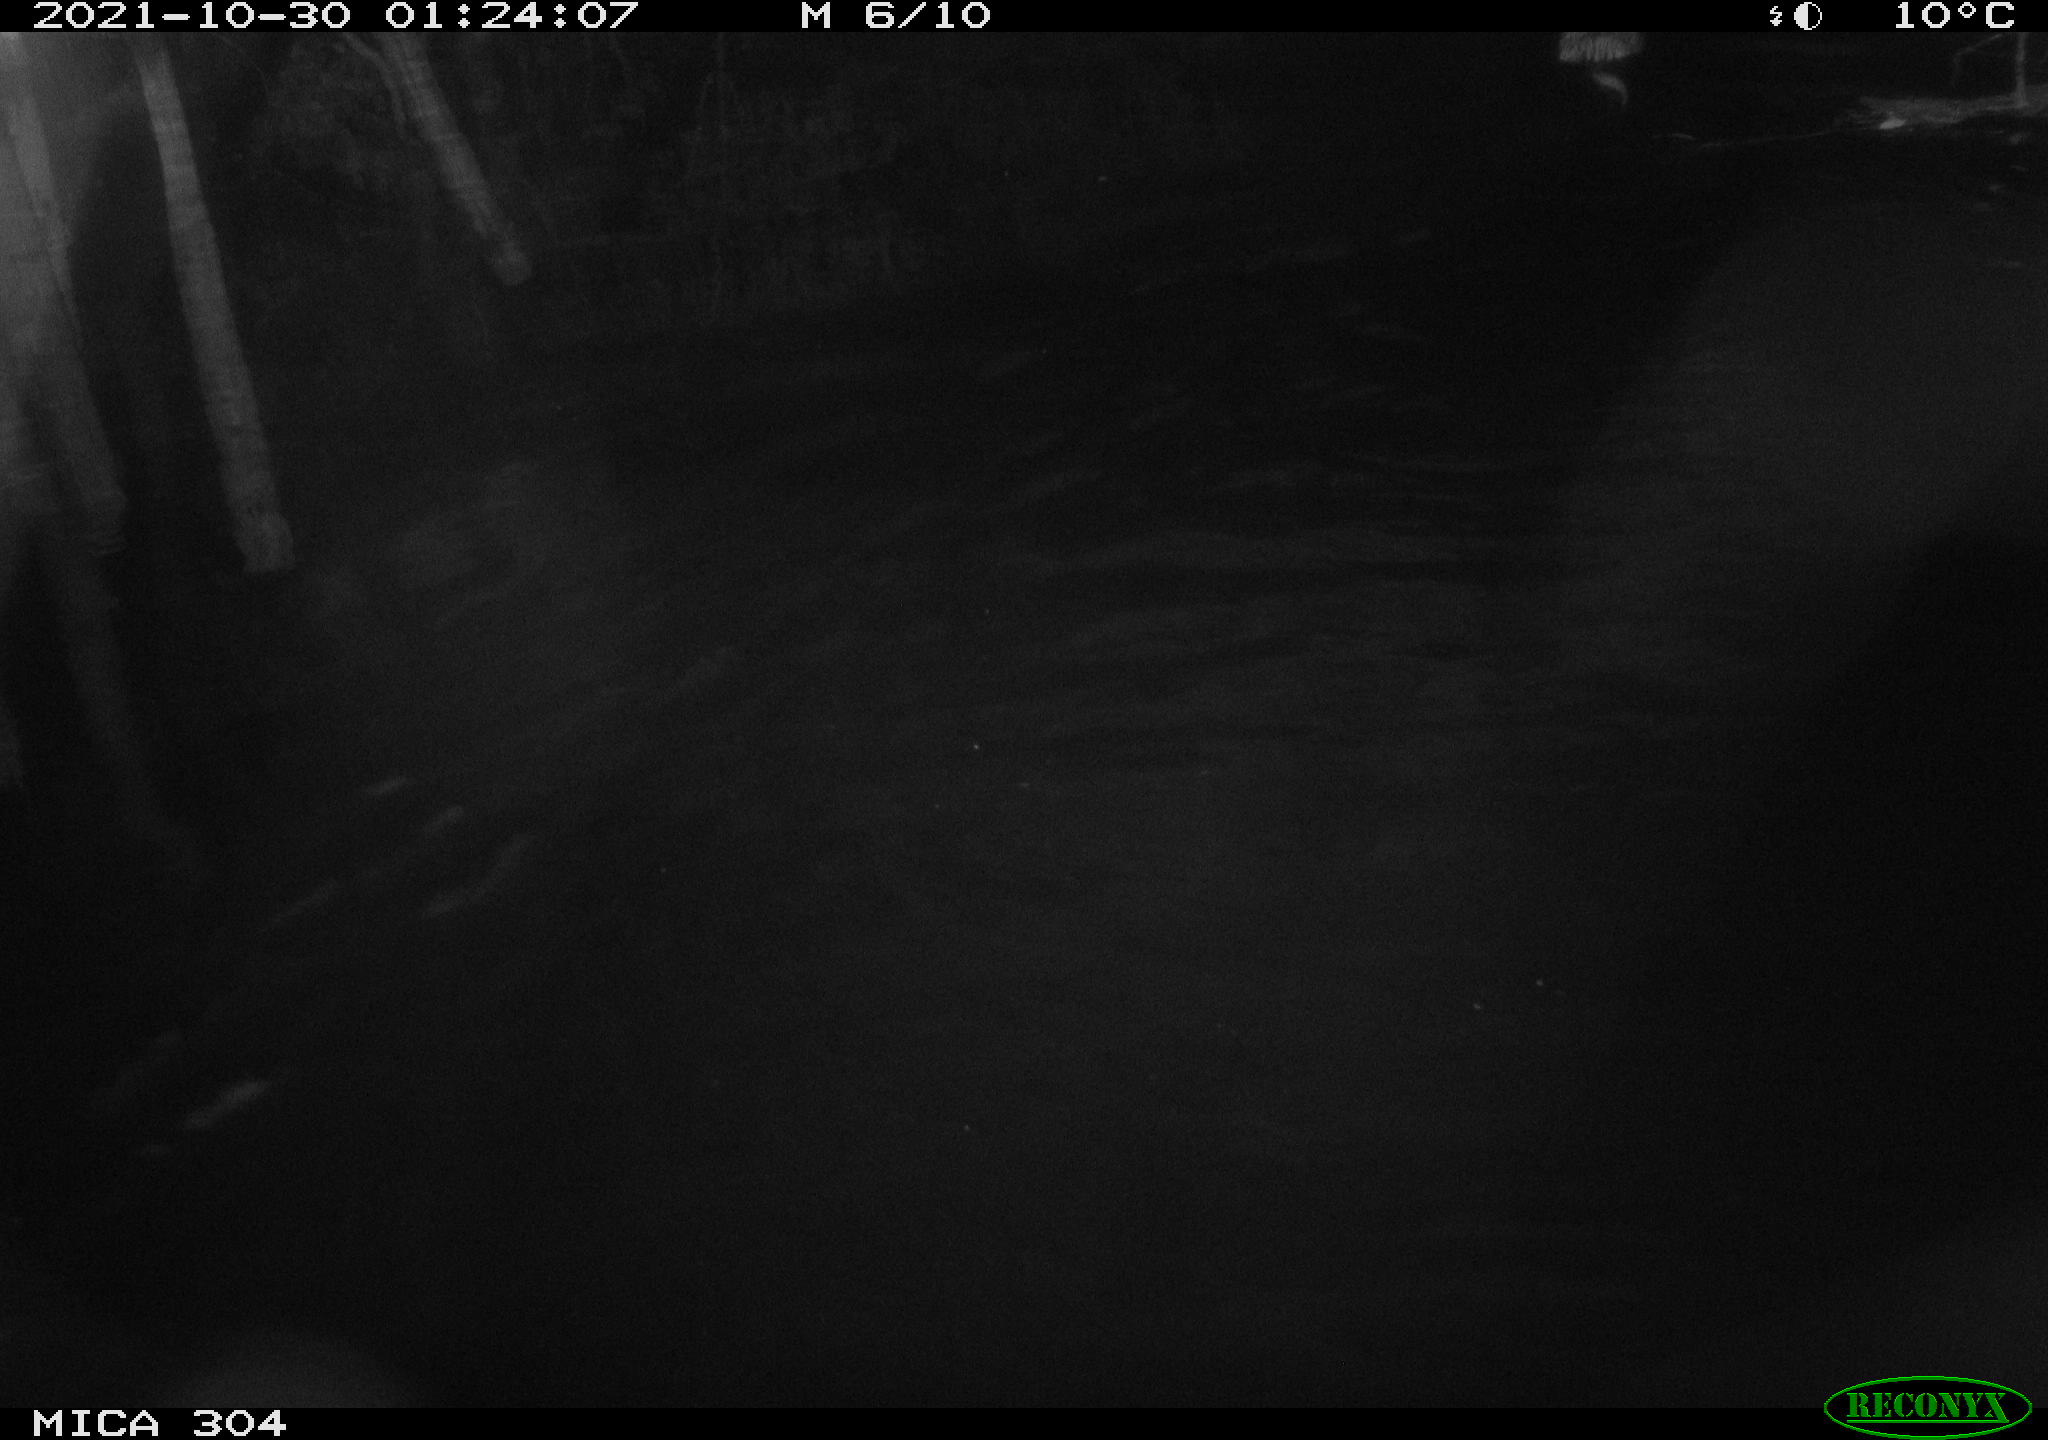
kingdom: Animalia
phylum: Chordata
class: Mammalia
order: Rodentia
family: Cricetidae
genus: Ondatra
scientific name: Ondatra zibethicus
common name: Muskrat
